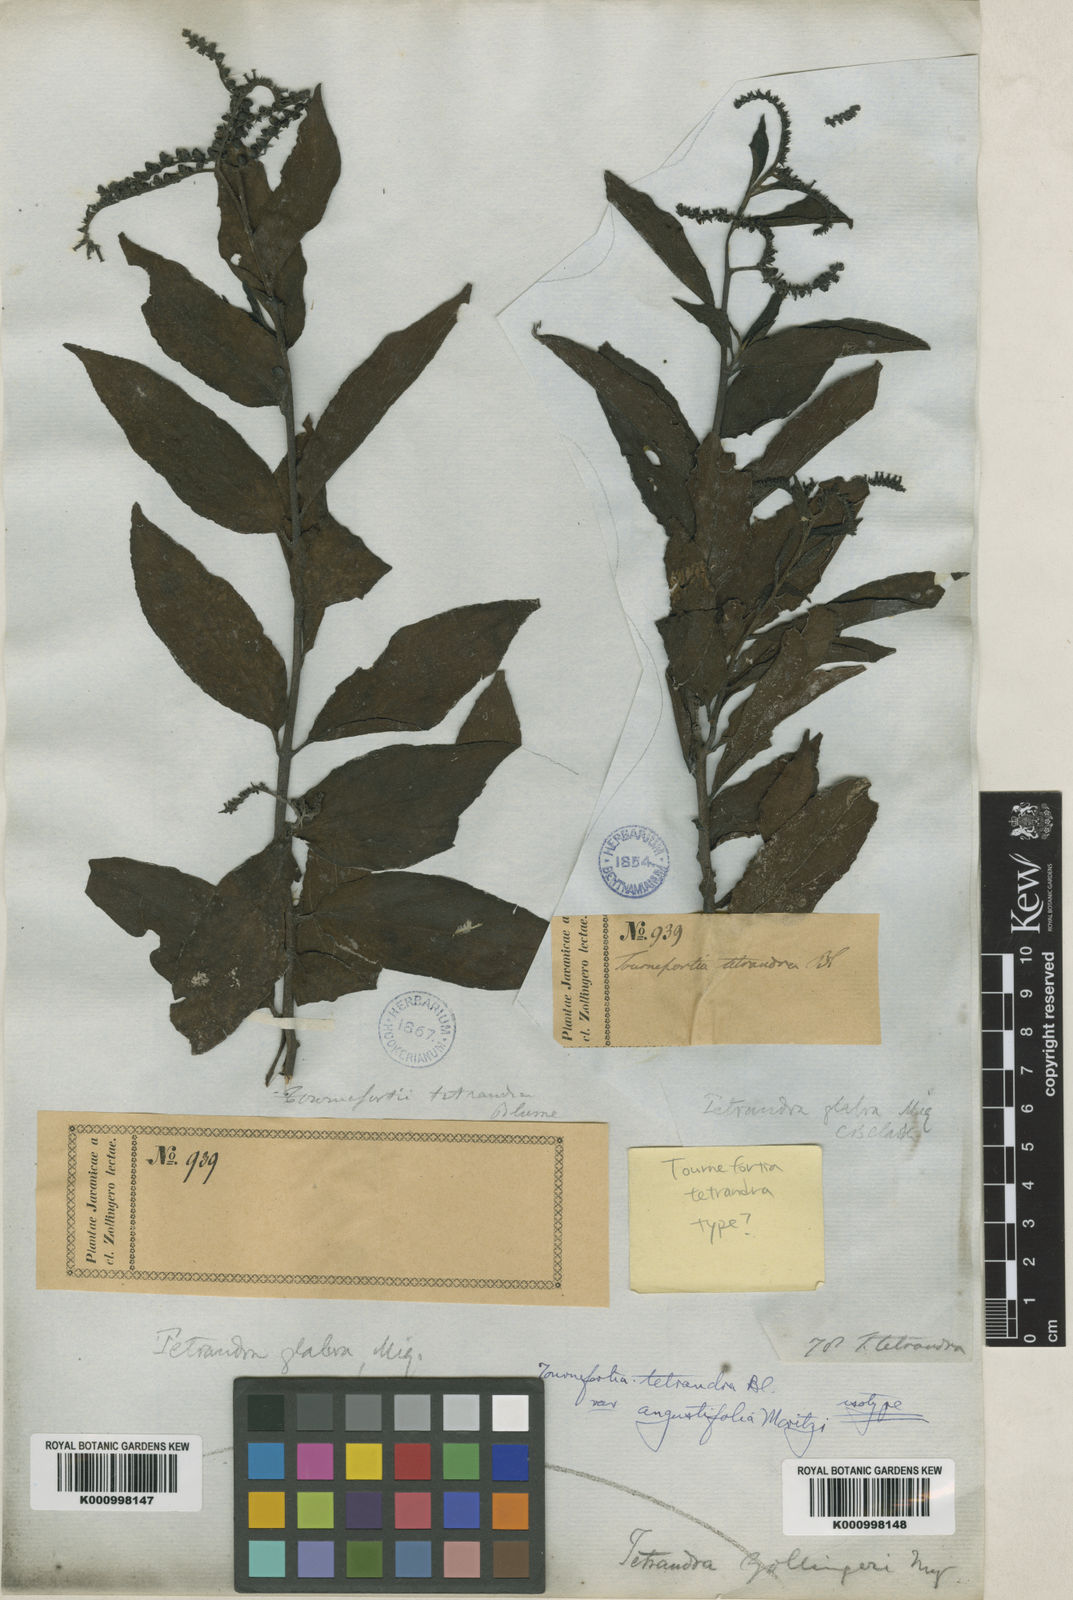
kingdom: Plantae
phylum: Tracheophyta
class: Magnoliopsida
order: Boraginales
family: Heliotropiaceae
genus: Heliotropium
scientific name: Heliotropium biblianum
